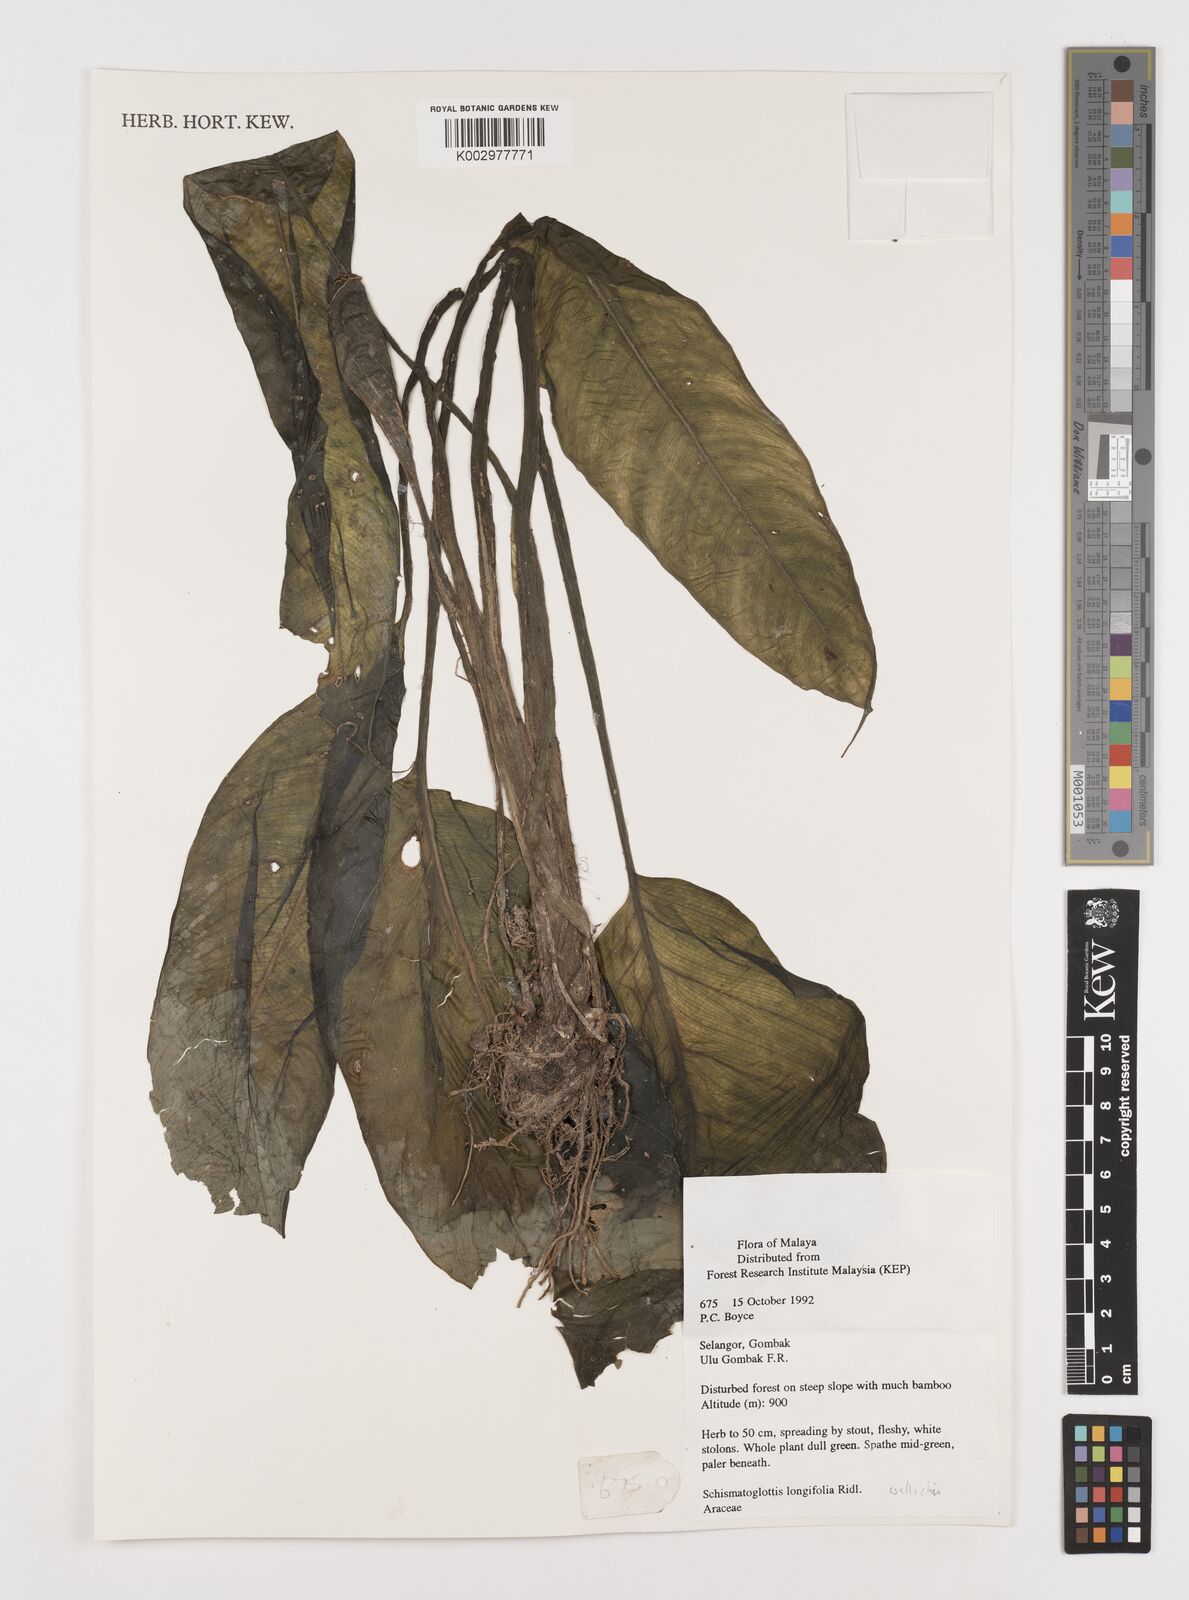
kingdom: Plantae
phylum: Tracheophyta
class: Liliopsida
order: Alismatales
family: Araceae
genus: Schismatoglottis
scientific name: Schismatoglottis wallichii
